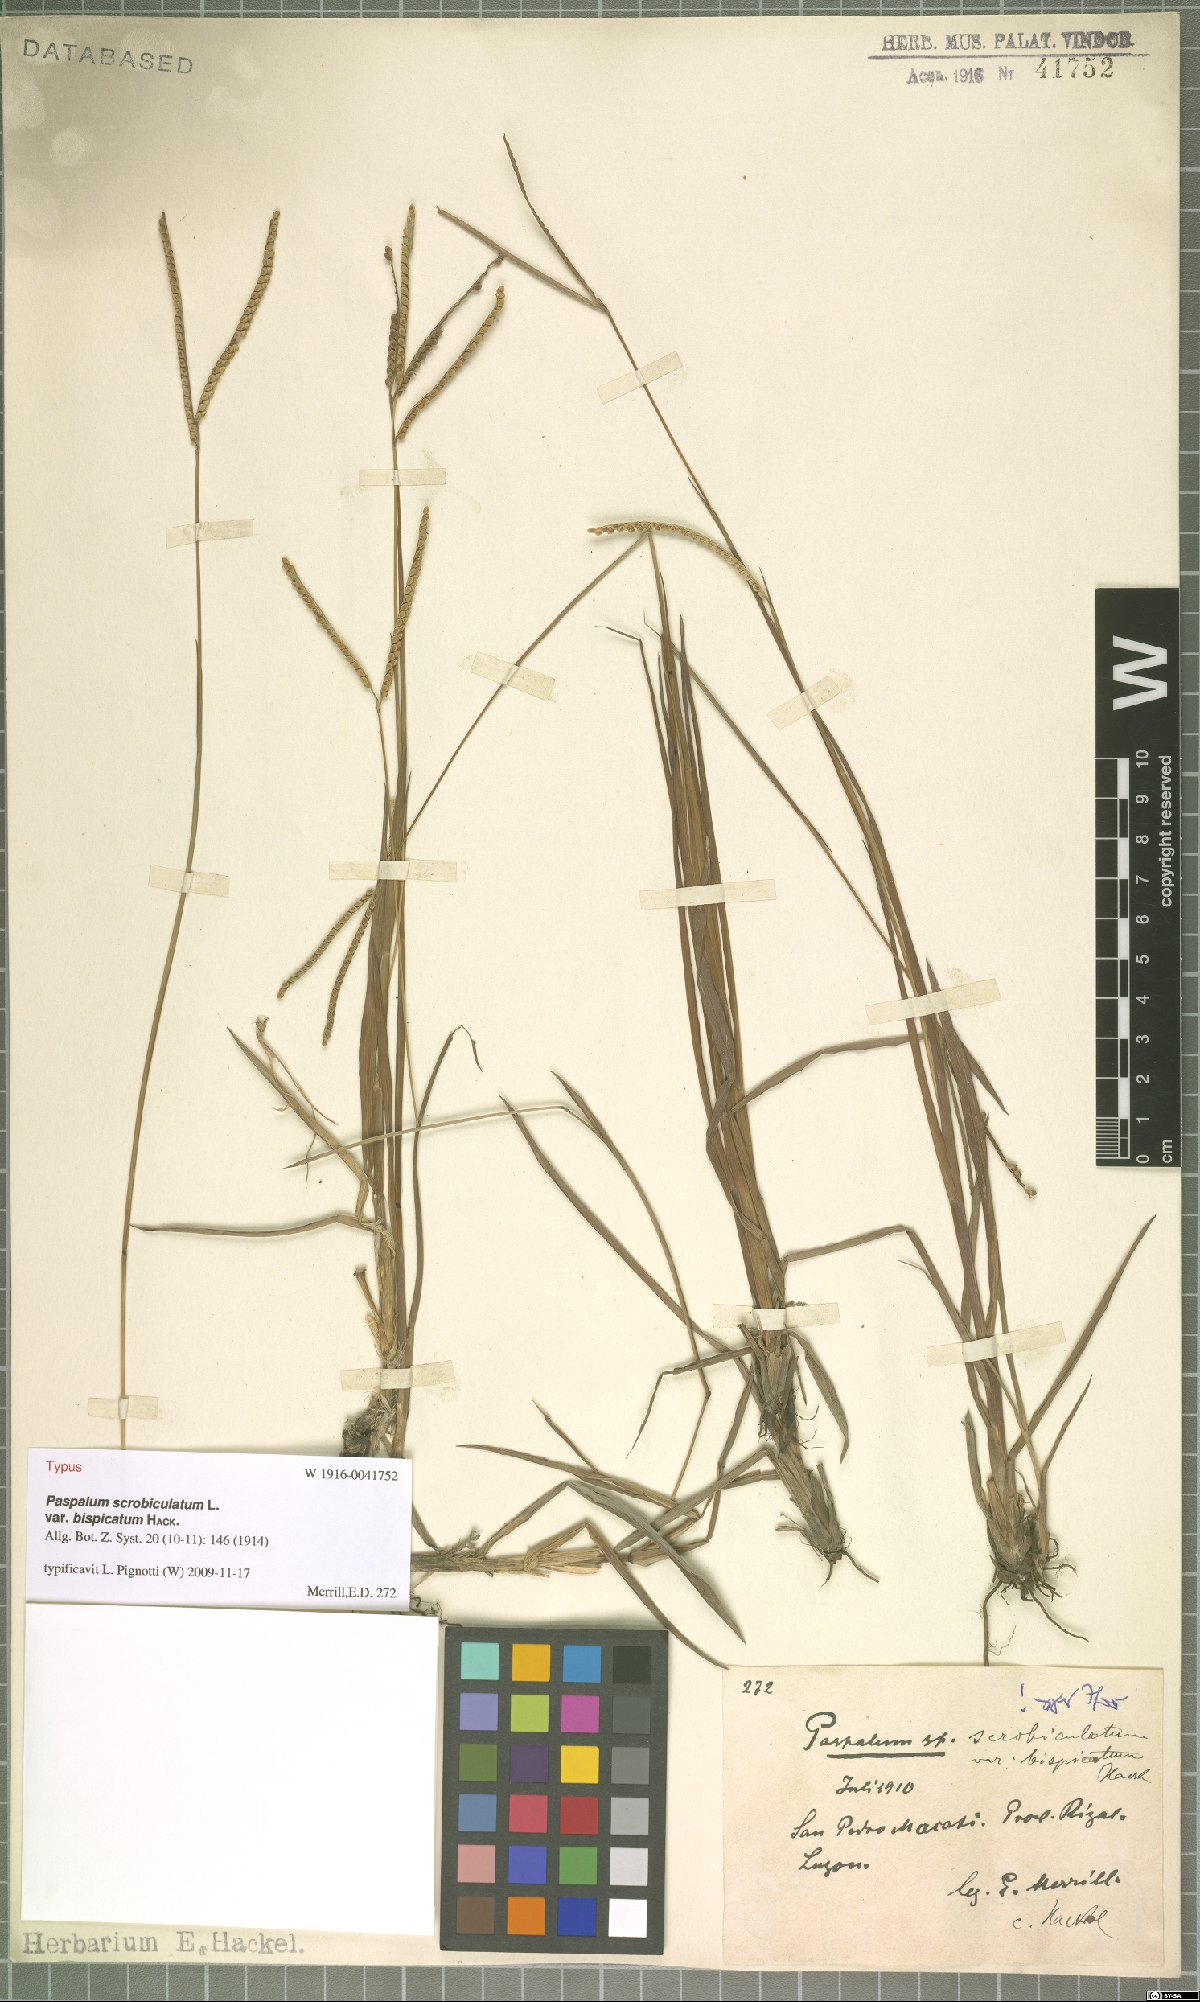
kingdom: Plantae
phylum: Tracheophyta
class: Liliopsida
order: Poales
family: Poaceae
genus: Paspalum
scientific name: Paspalum scrobiculatum
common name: Kodo millet
